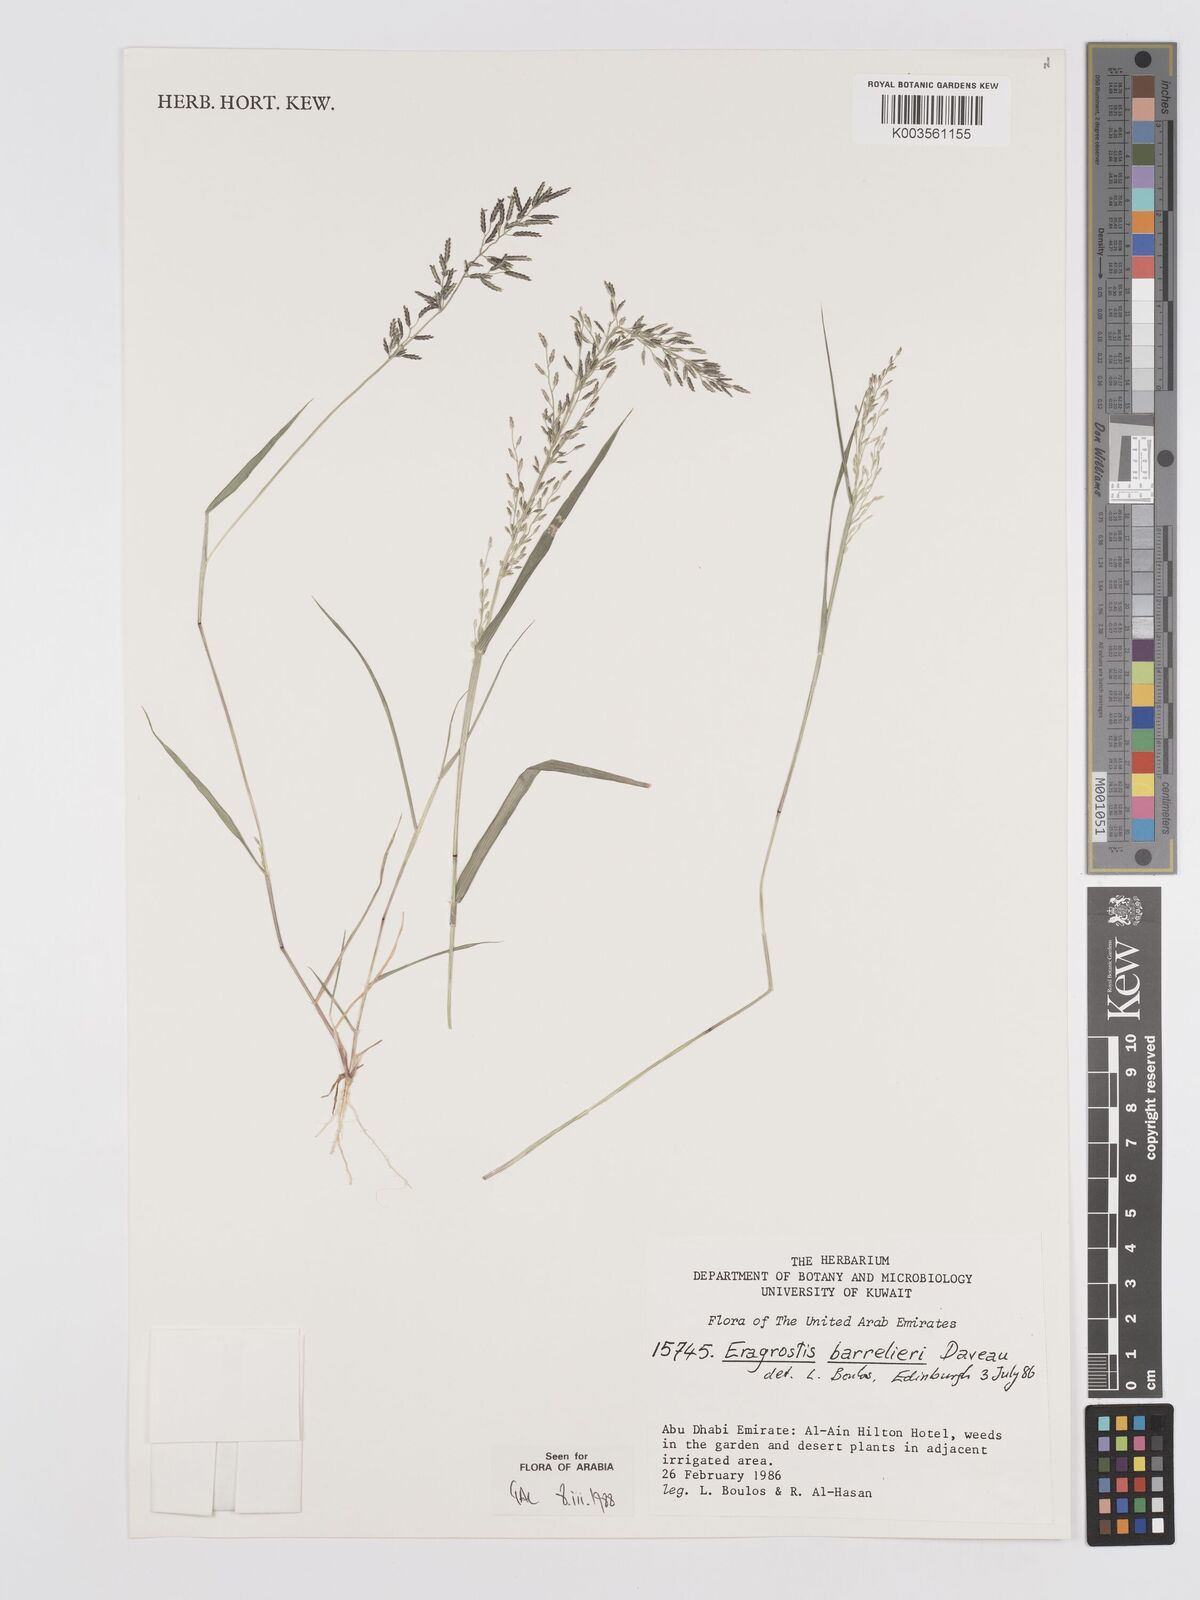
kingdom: Plantae
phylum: Tracheophyta
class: Liliopsida
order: Poales
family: Poaceae
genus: Eragrostis
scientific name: Eragrostis barrelieri
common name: Mediterranean lovegrass
